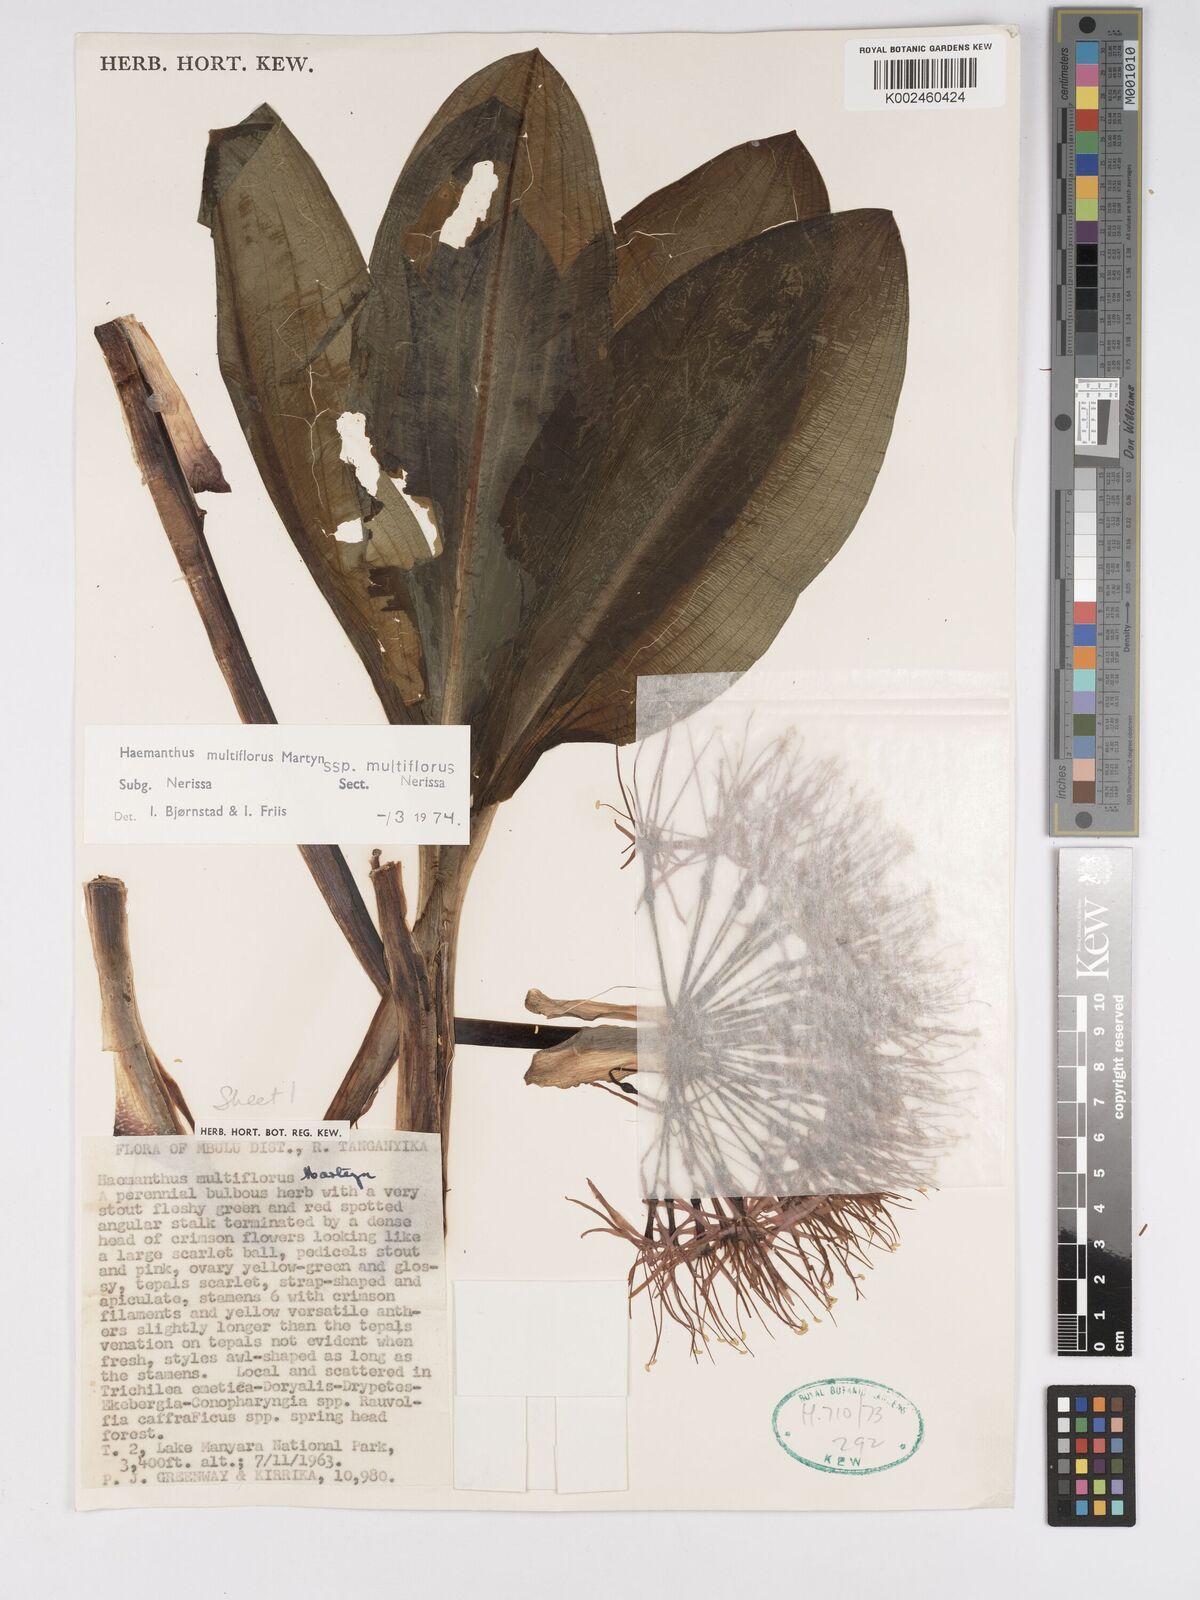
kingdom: Plantae
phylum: Tracheophyta
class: Liliopsida
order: Asparagales
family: Amaryllidaceae
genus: Scadoxus
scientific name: Scadoxus multiflorus
